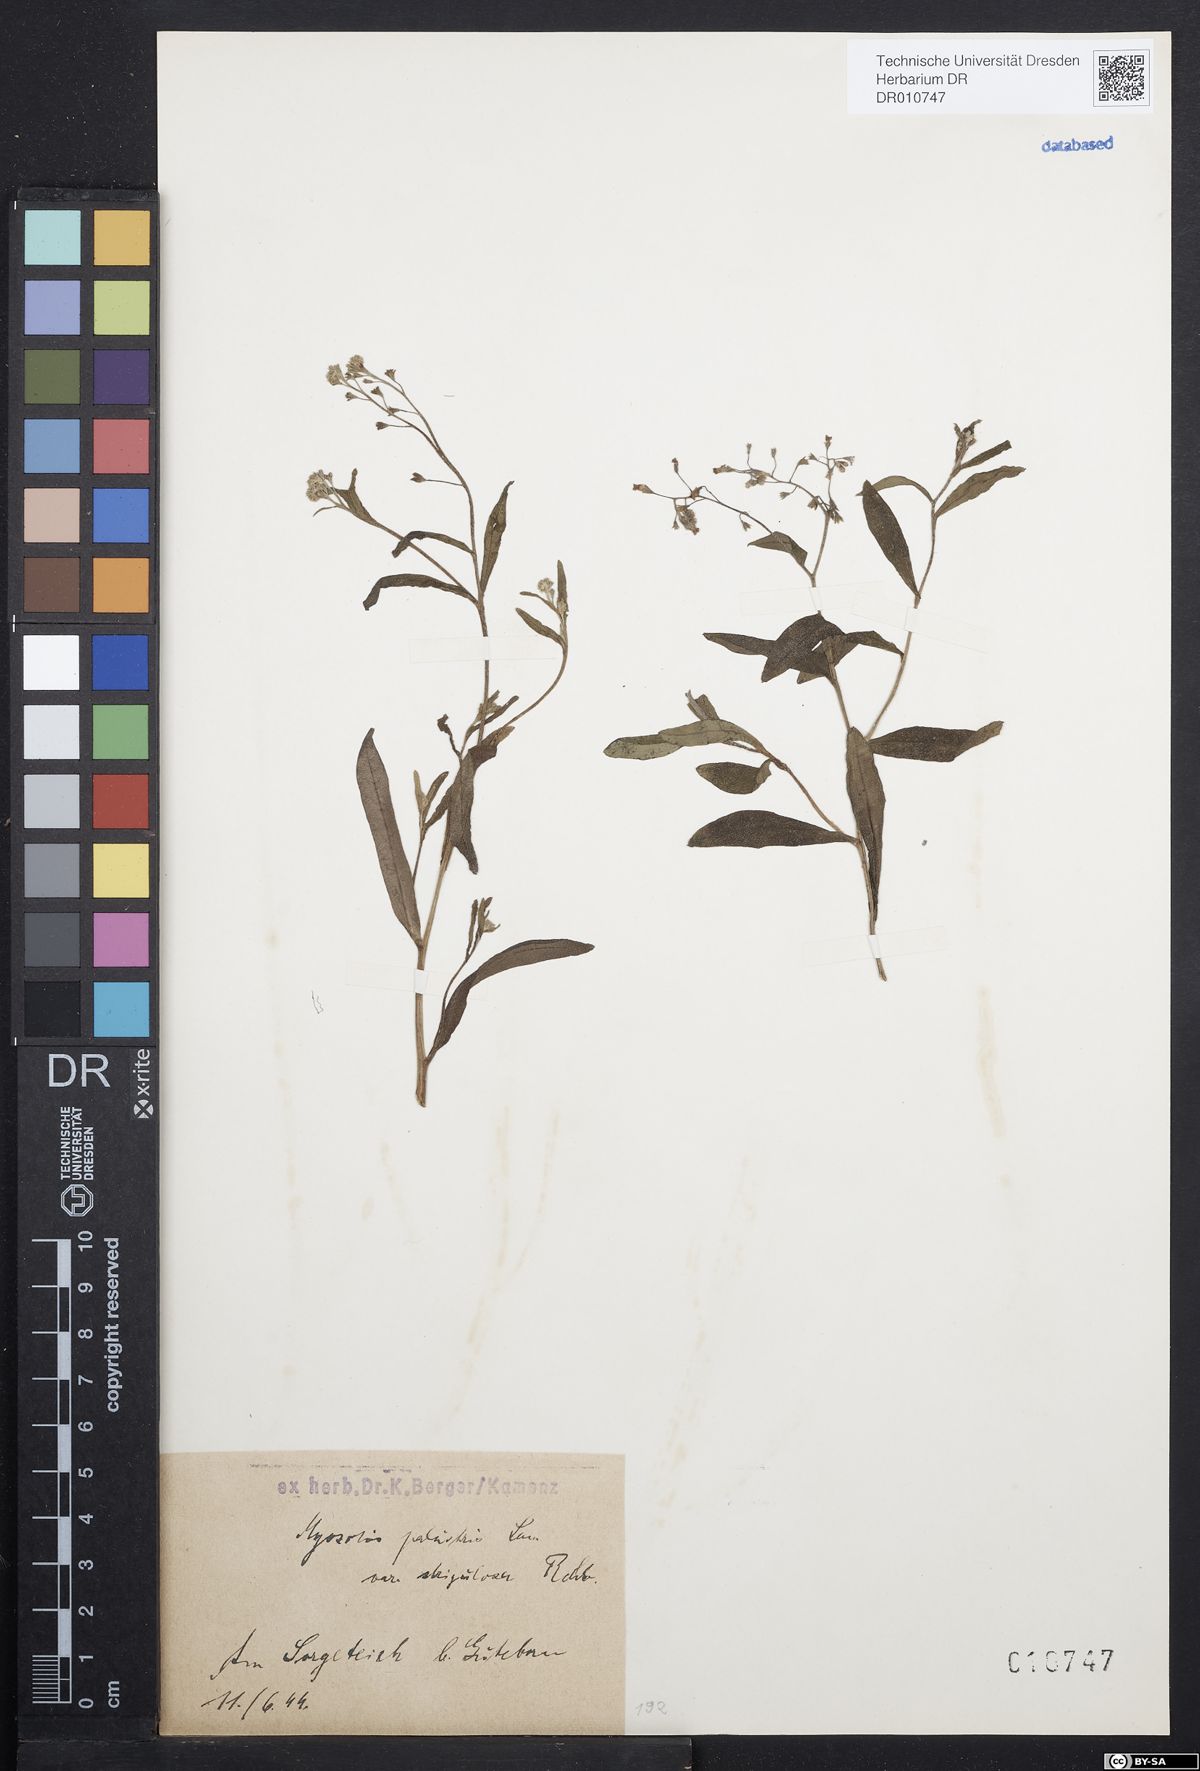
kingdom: Plantae
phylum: Tracheophyta
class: Magnoliopsida
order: Boraginales
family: Boraginaceae
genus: Myosotis
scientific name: Myosotis scorpioides
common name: Water forget-me-not
